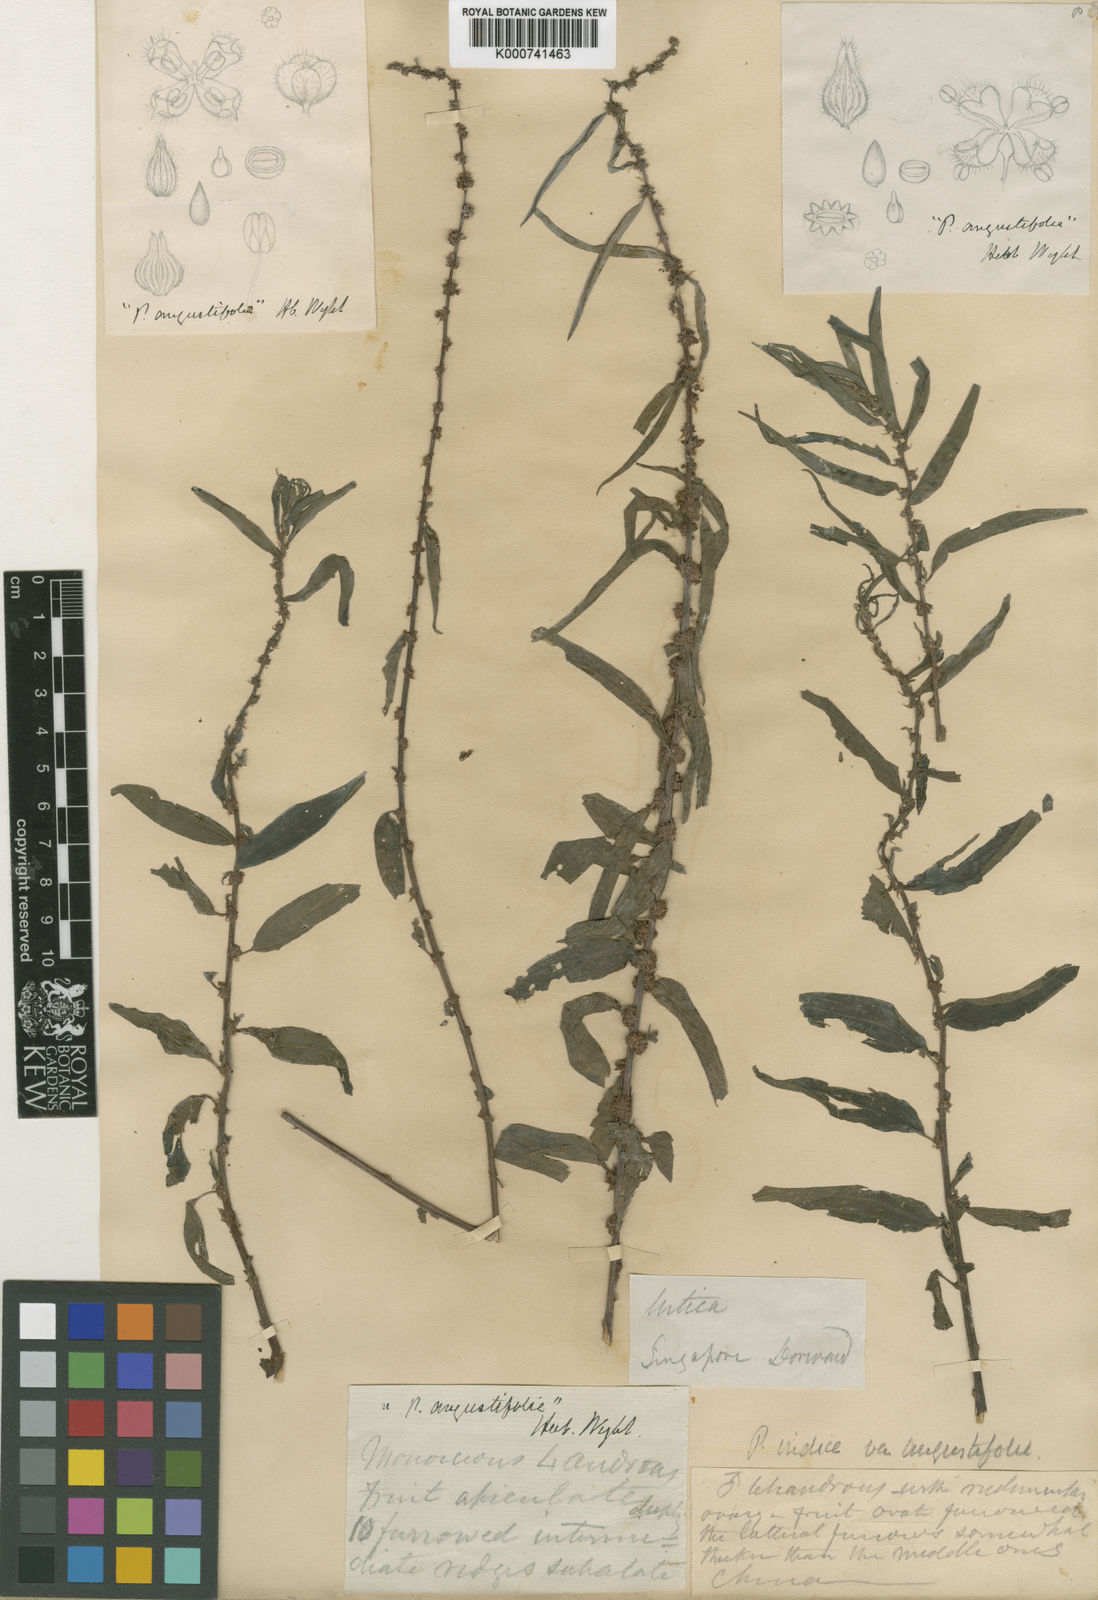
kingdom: Plantae
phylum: Tracheophyta
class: Magnoliopsida
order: Rosales
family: Urticaceae
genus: Pouzolzia
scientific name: Pouzolzia zeylanica
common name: Graceful pouzolzsbush
